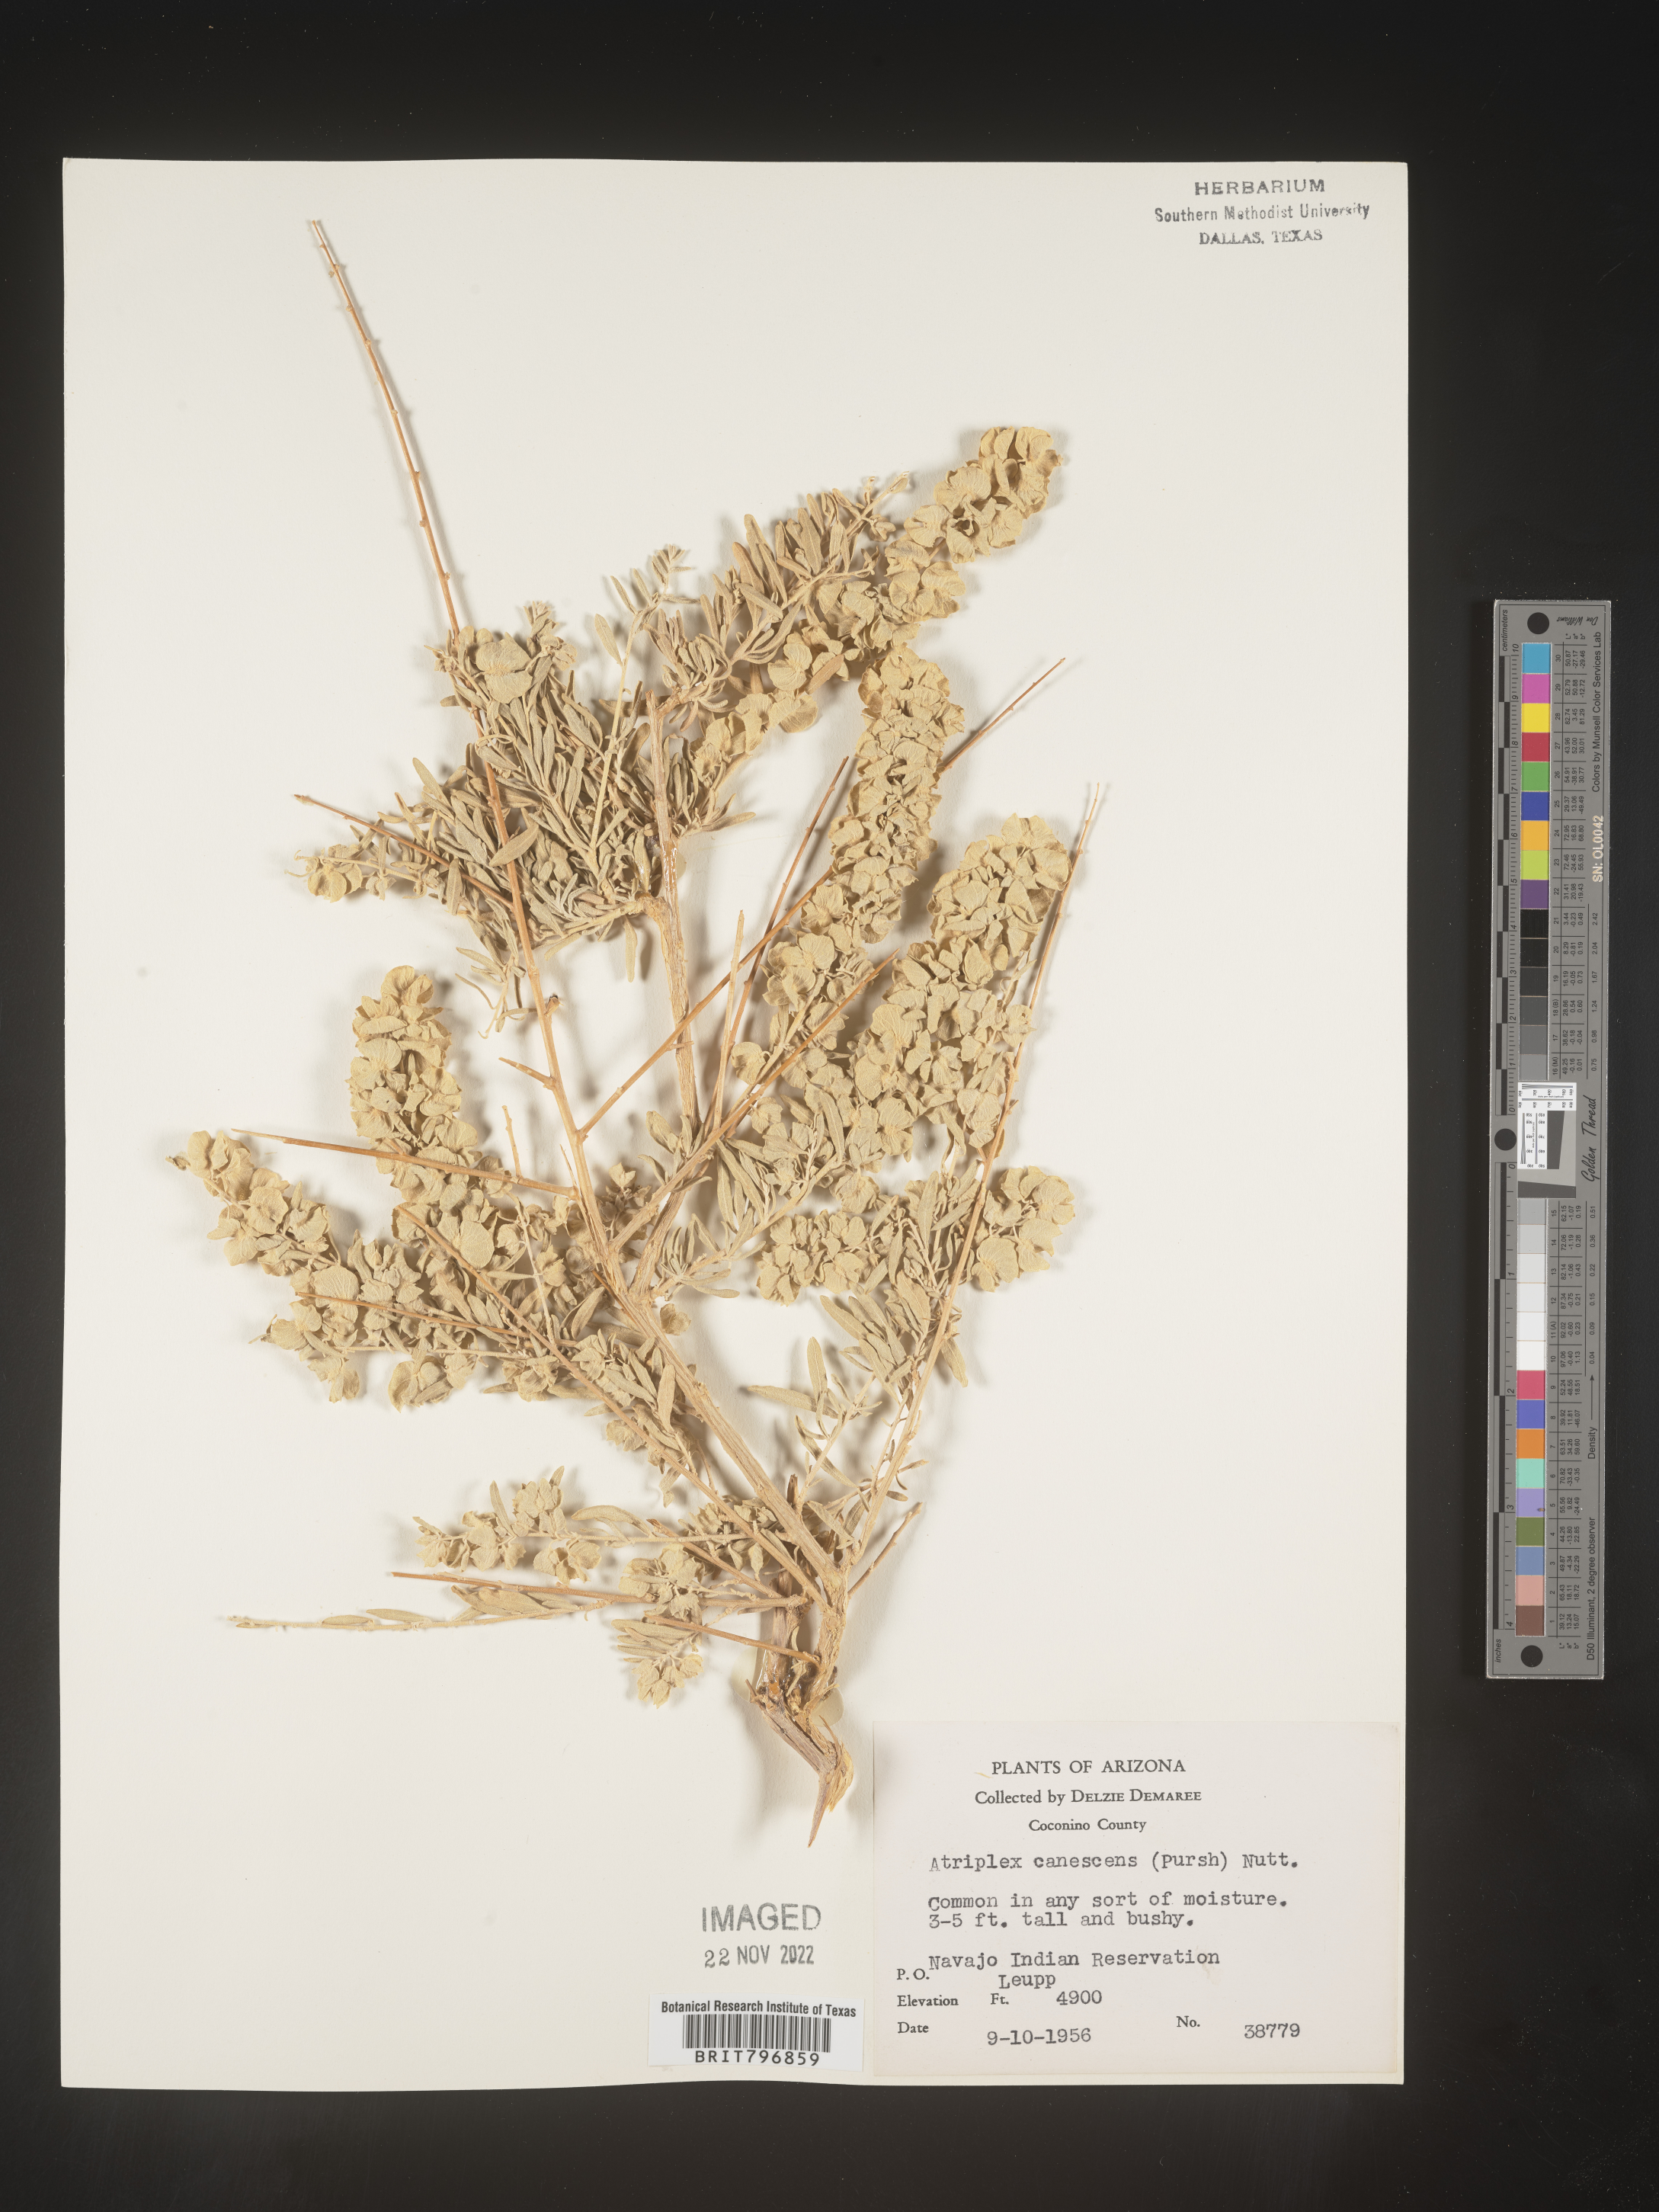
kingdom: Plantae
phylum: Tracheophyta
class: Magnoliopsida
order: Caryophyllales
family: Amaranthaceae
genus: Atriplex
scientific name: Atriplex canescens
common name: Four-wing saltbush
